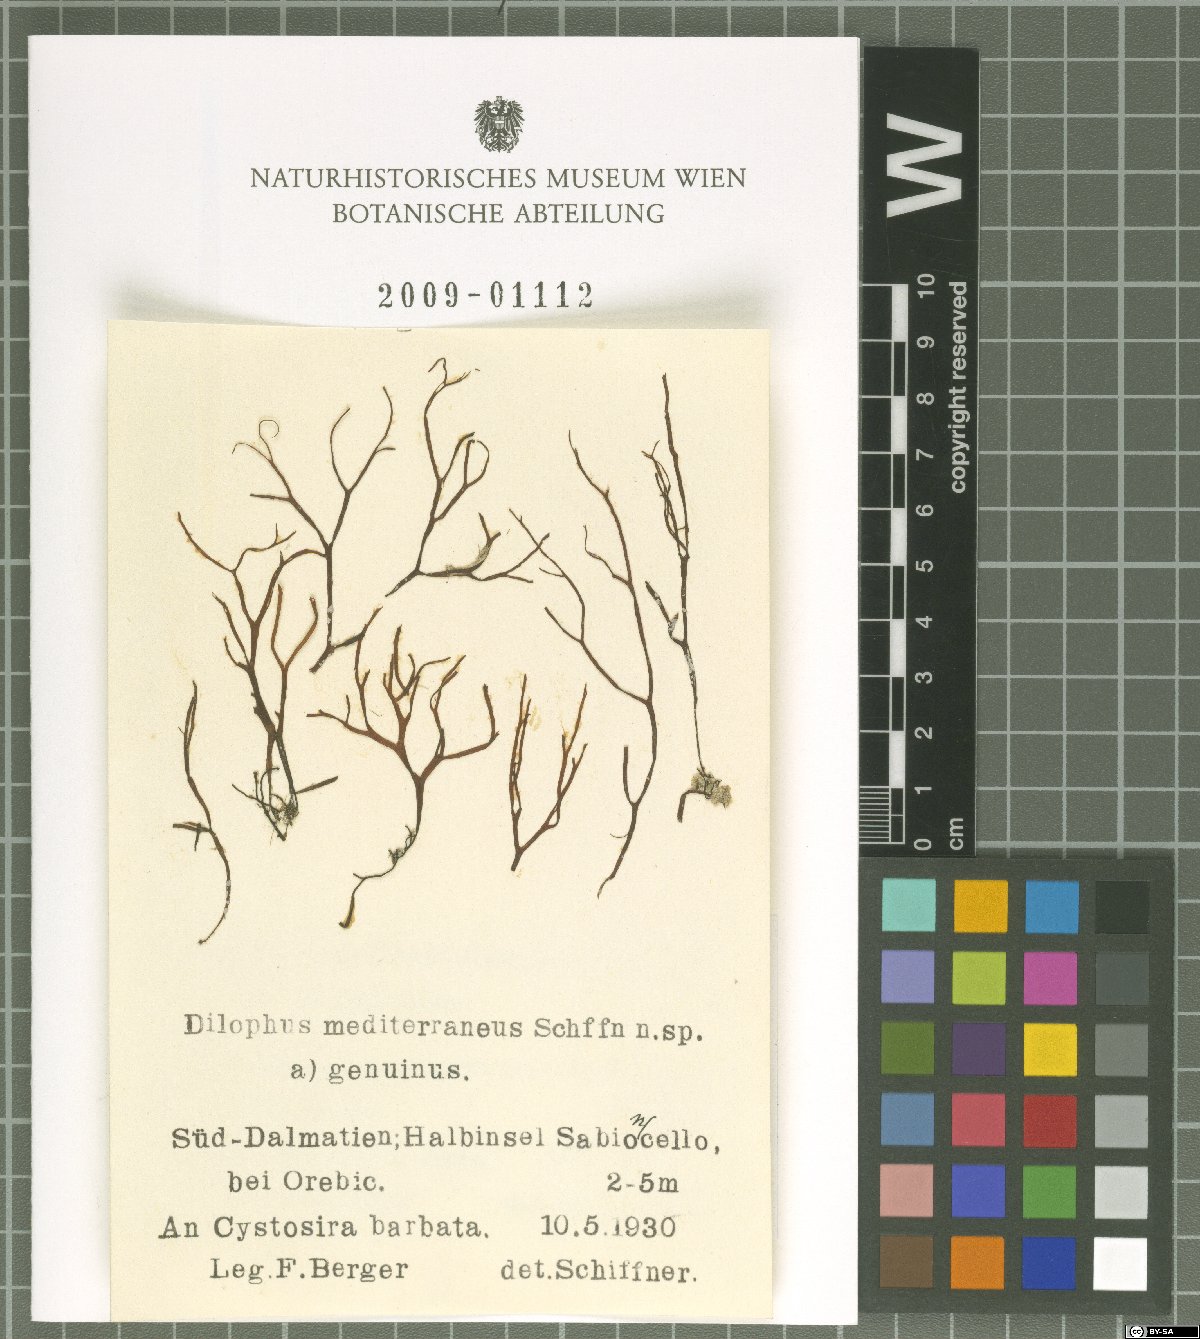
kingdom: Chromista
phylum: Ochrophyta
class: Phaeophyceae
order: Dictyotales
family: Dictyotaceae
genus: Dictyota
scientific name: Dictyota
